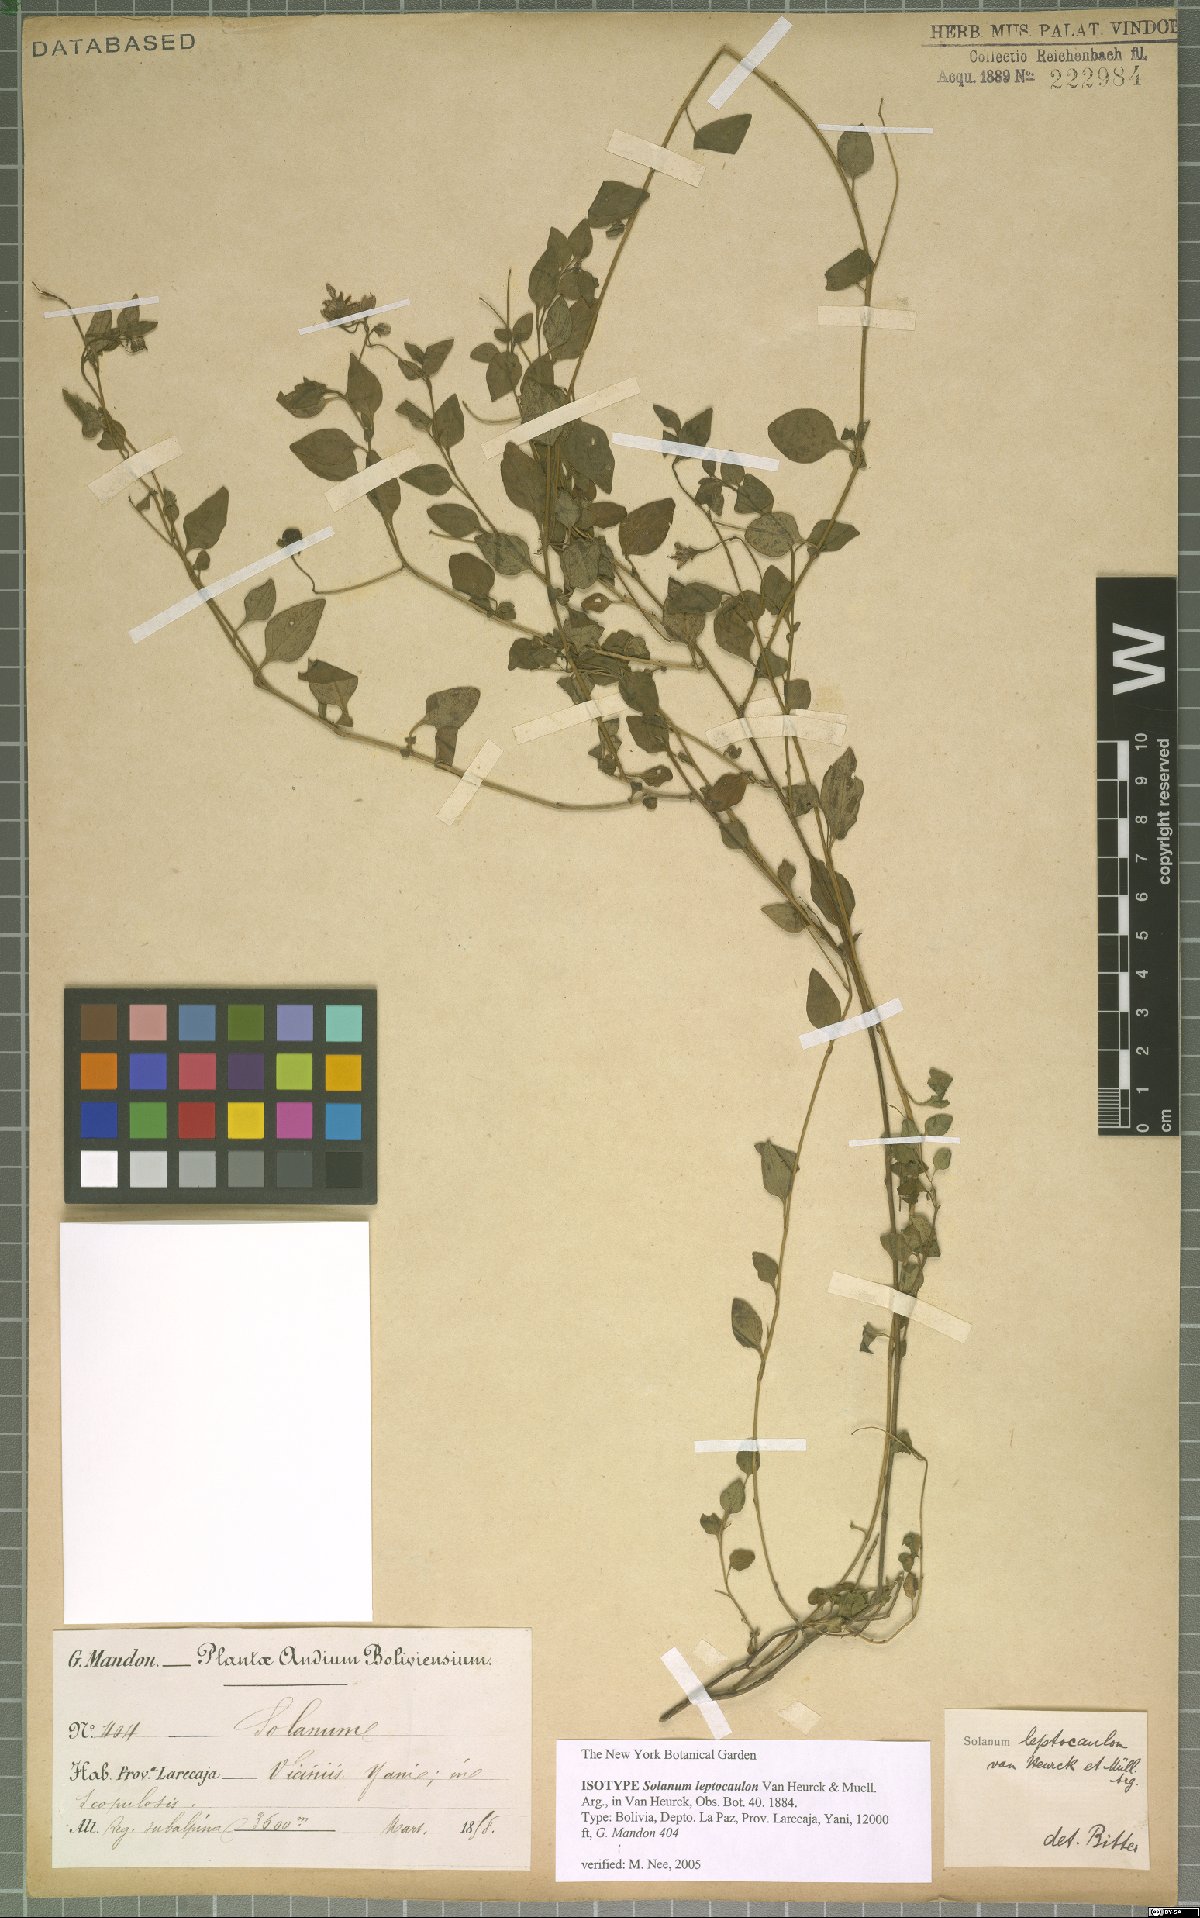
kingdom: Plantae
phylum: Tracheophyta
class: Magnoliopsida
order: Solanales
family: Solanaceae
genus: Solanum
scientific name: Solanum leptocaulon
